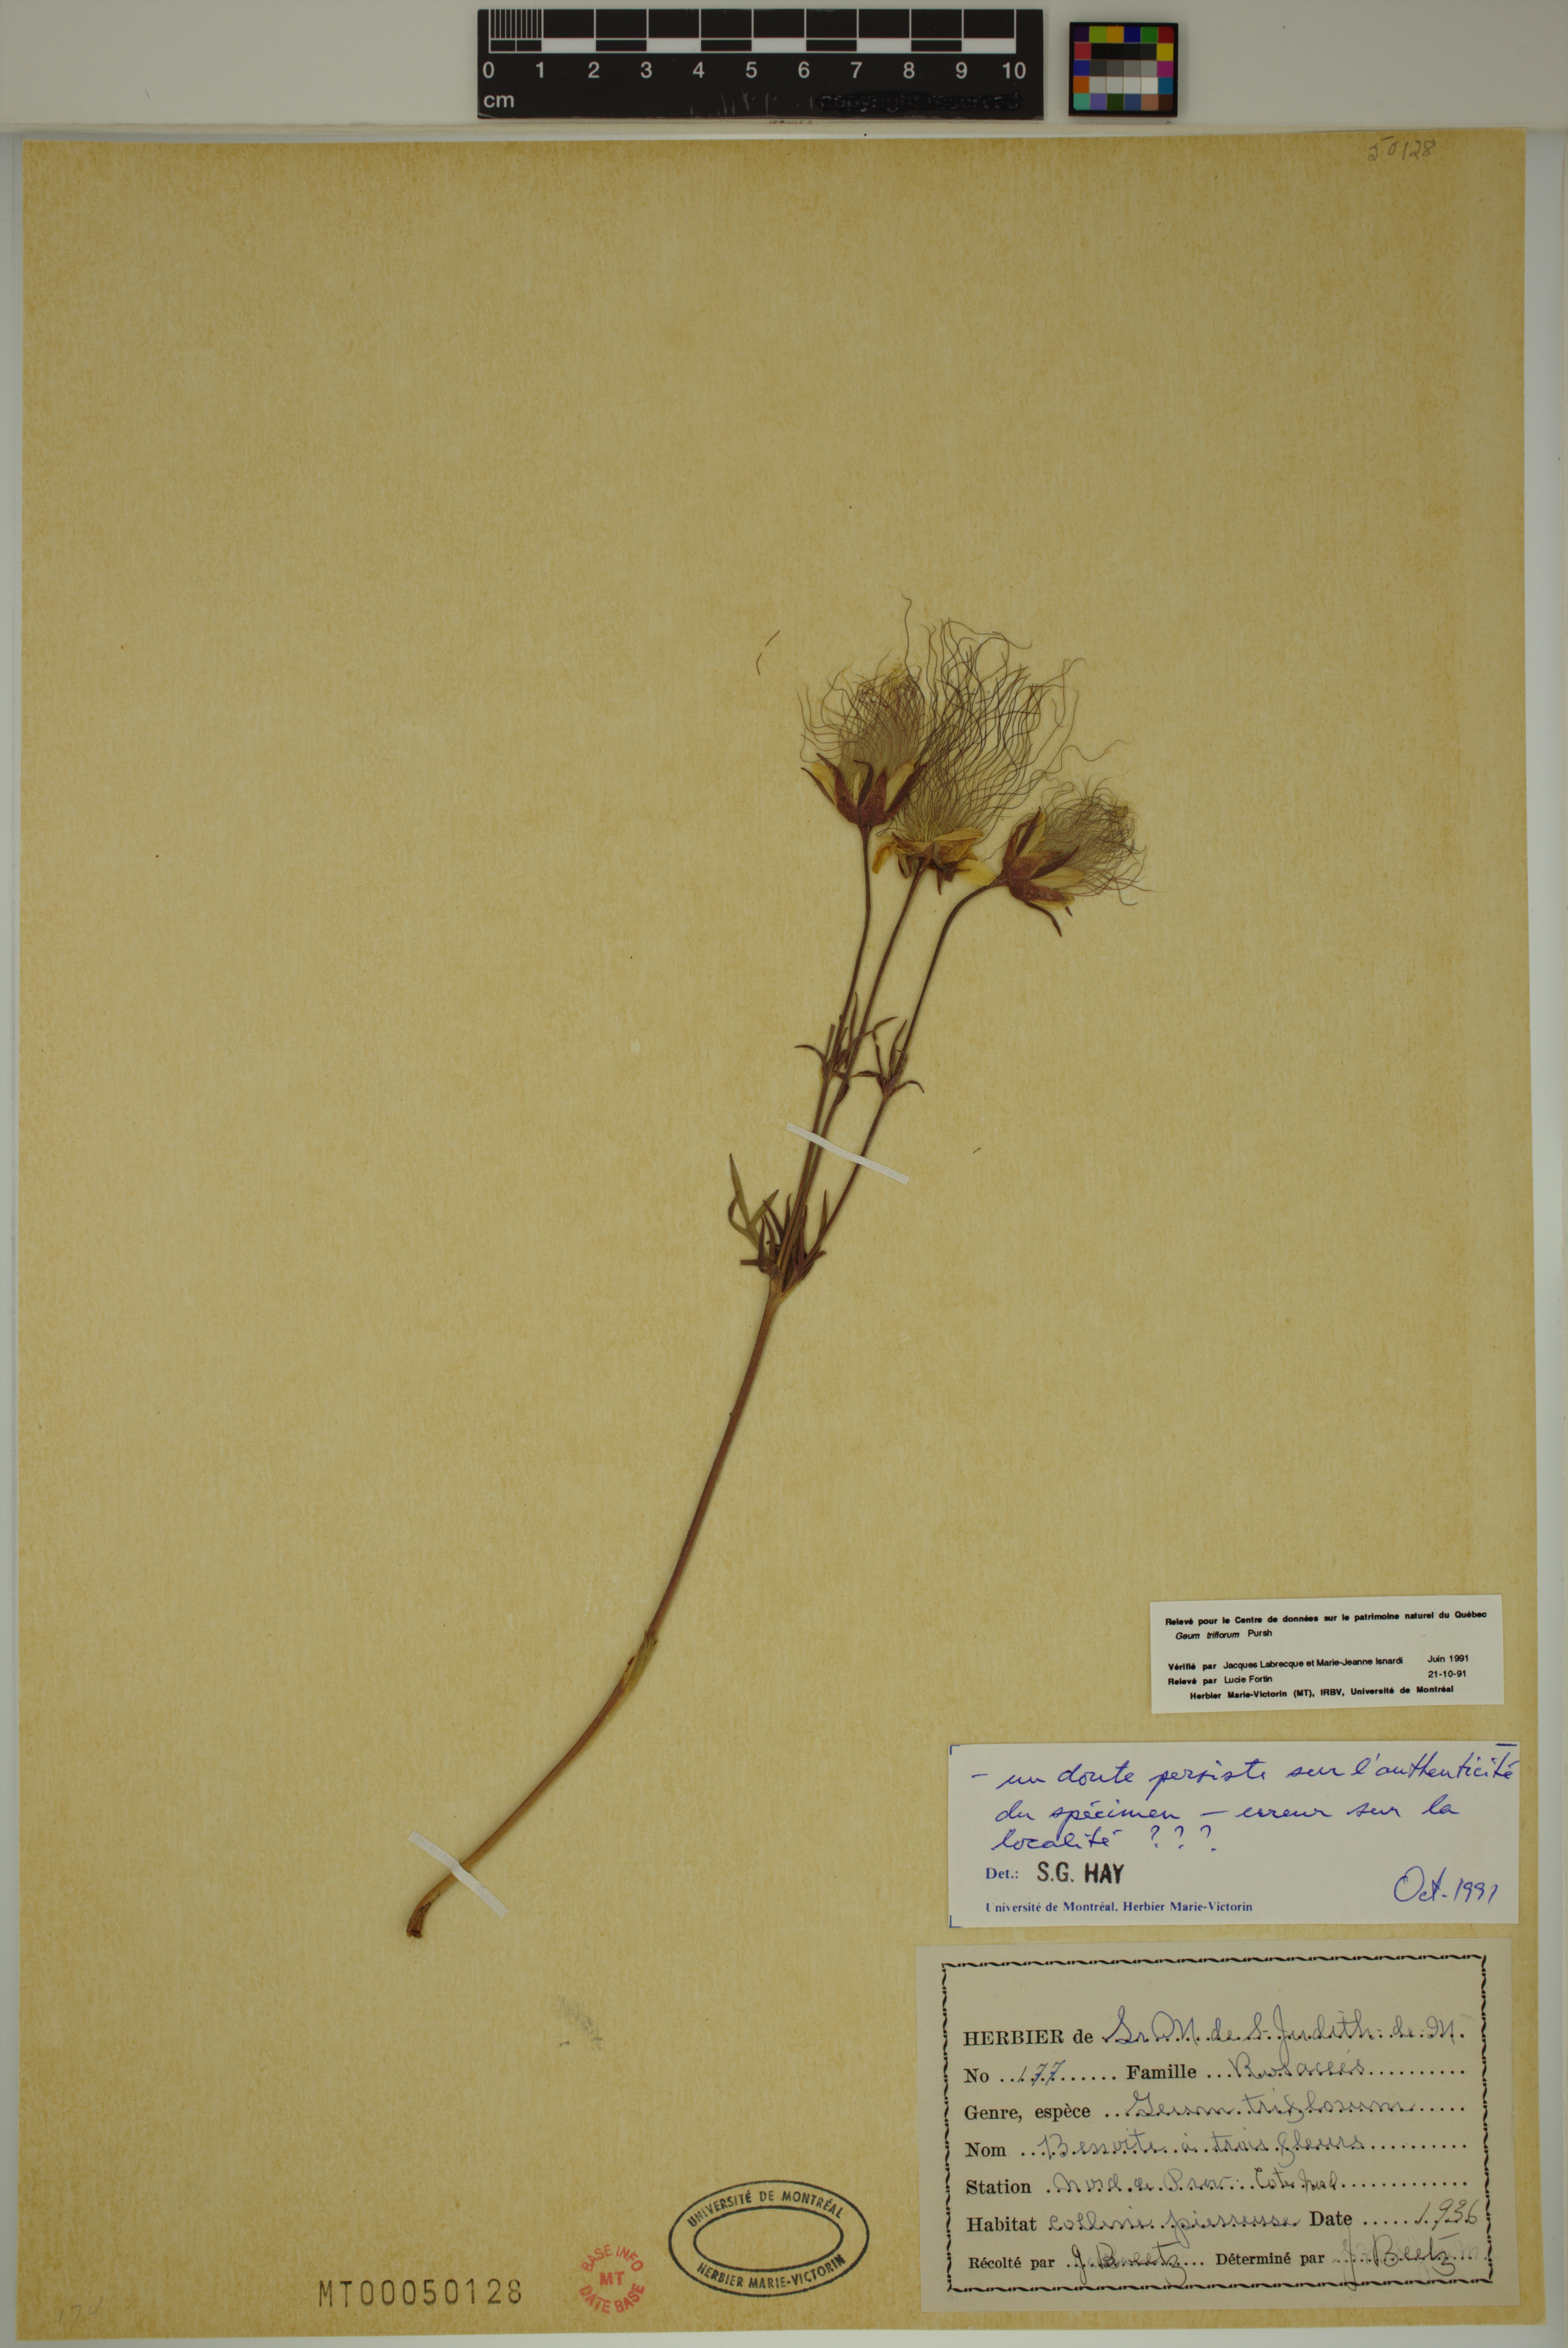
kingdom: Plantae
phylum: Tracheophyta
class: Magnoliopsida
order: Rosales
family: Rosaceae
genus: Geum
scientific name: Geum triflorum
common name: Old man's whiskers
